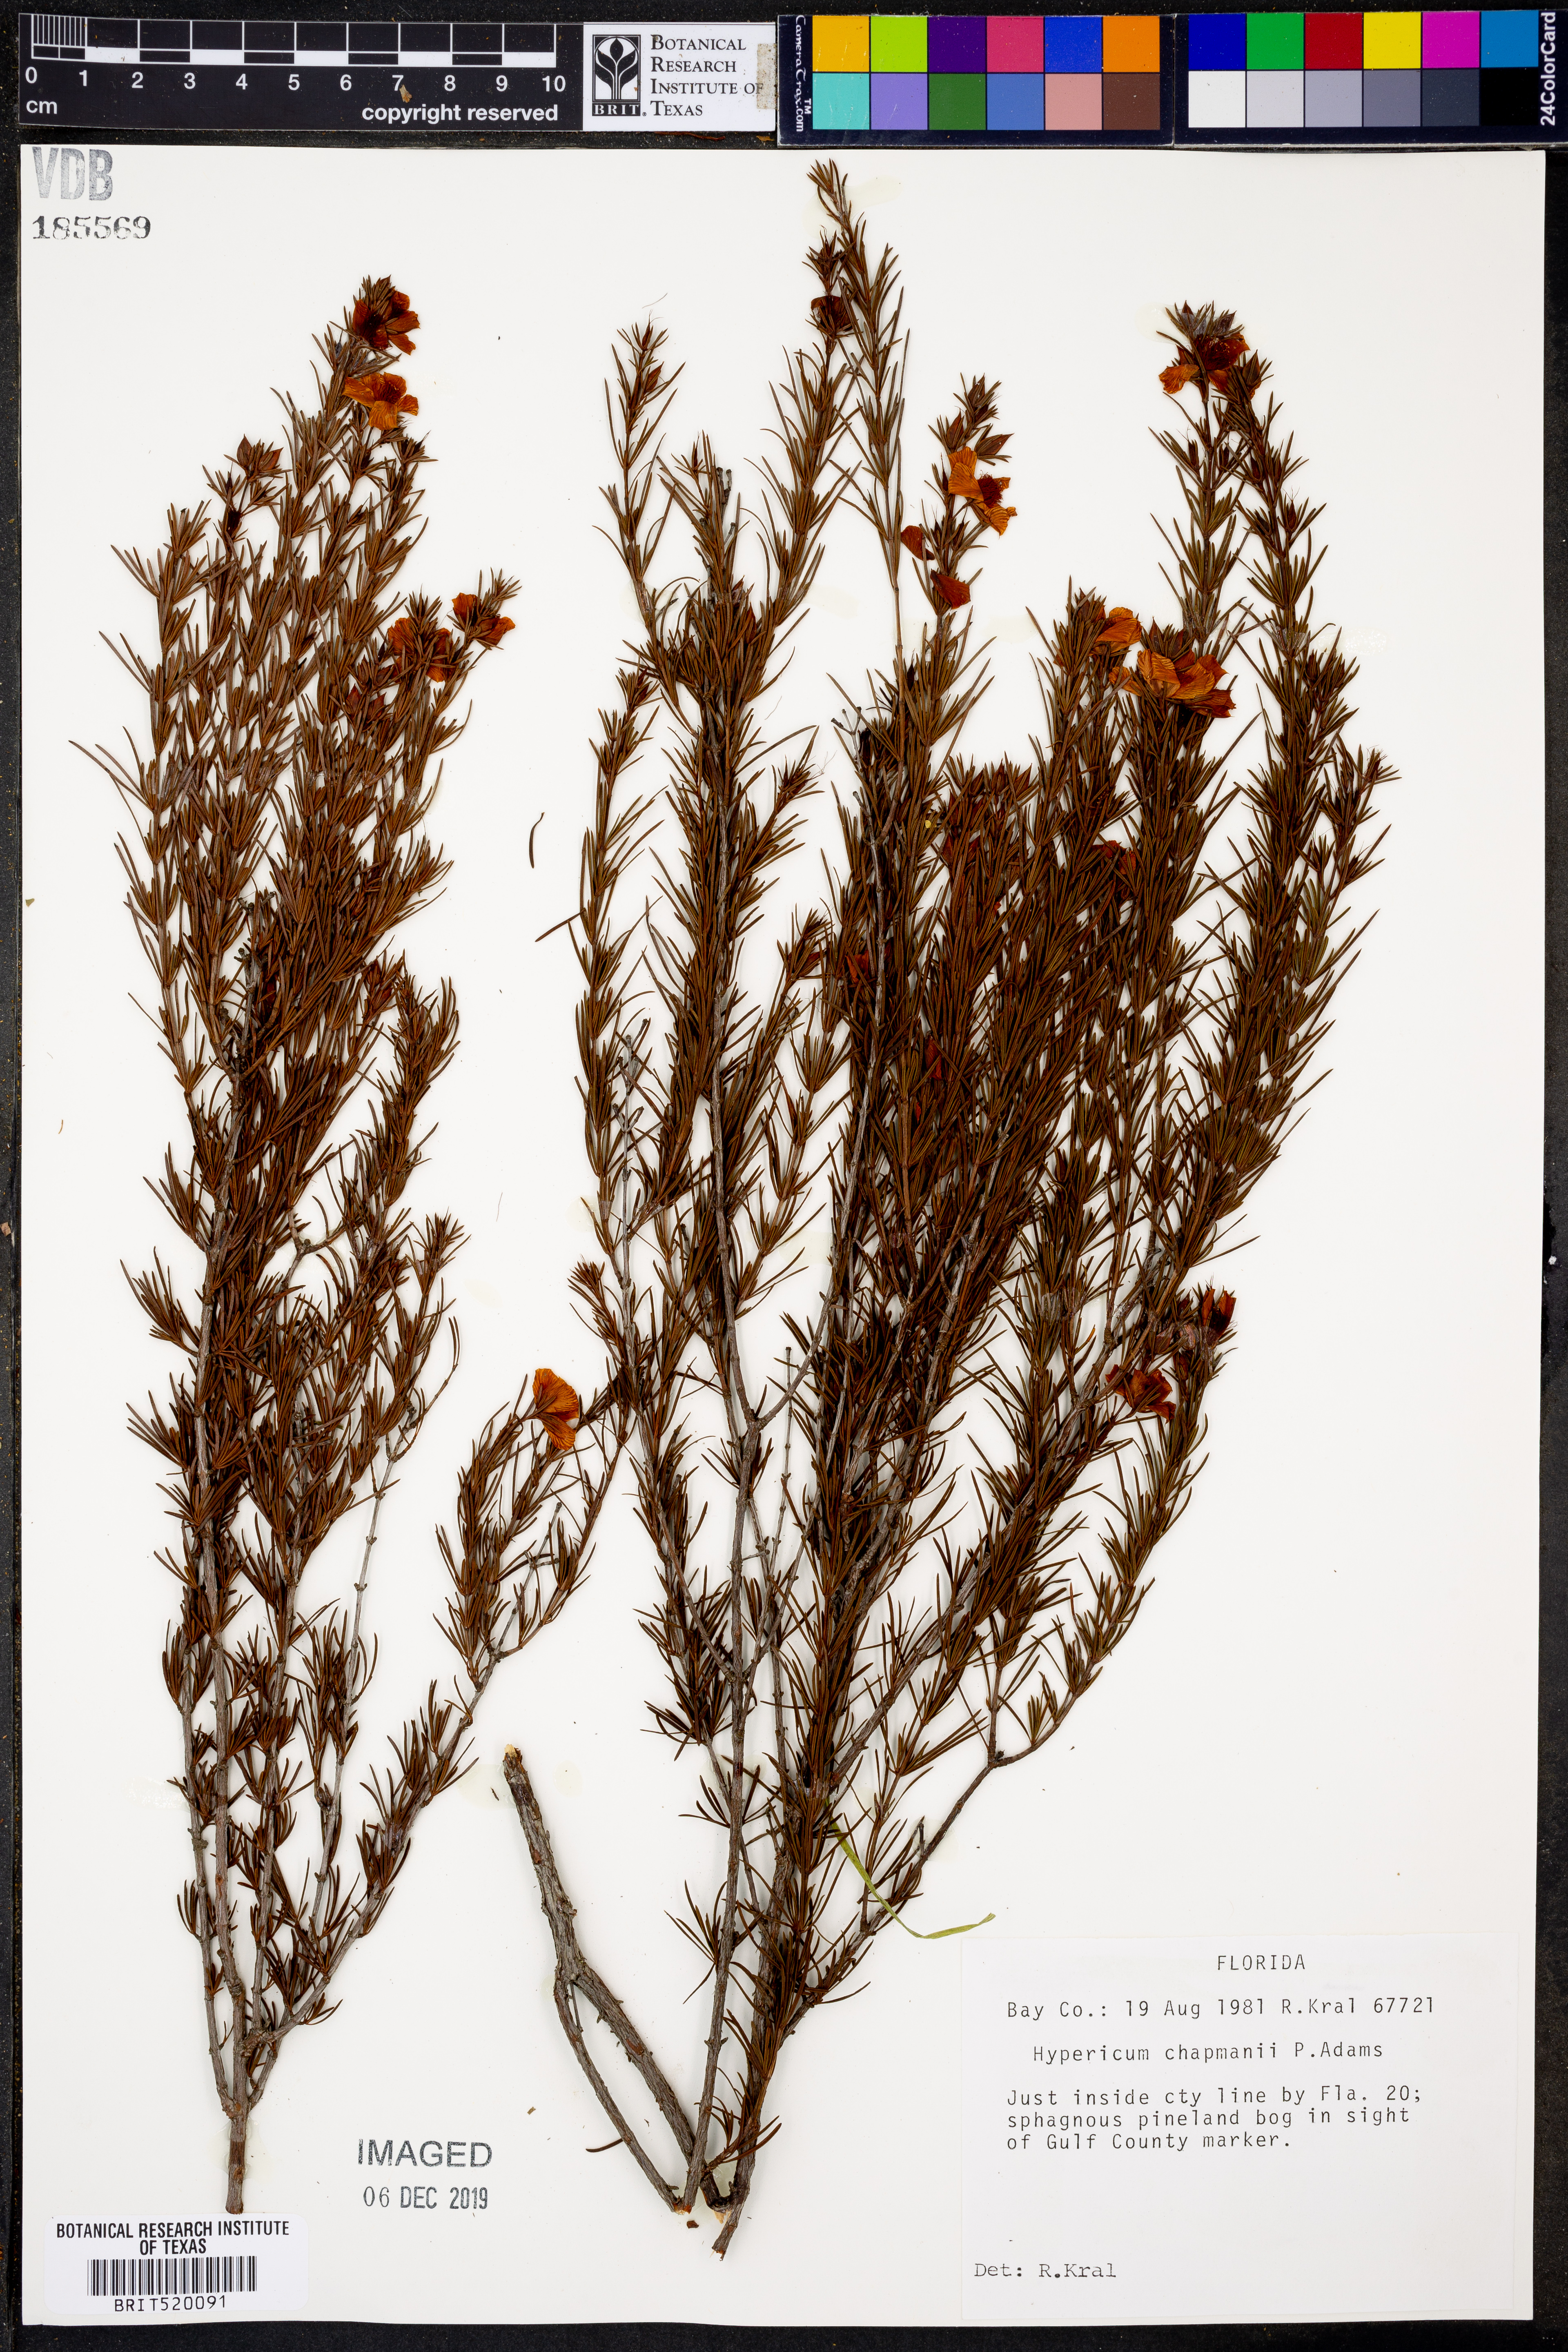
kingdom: Plantae
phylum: Tracheophyta
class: Magnoliopsida
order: Malpighiales
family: Hypericaceae
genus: Hypericum
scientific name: Hypericum chapmanii
